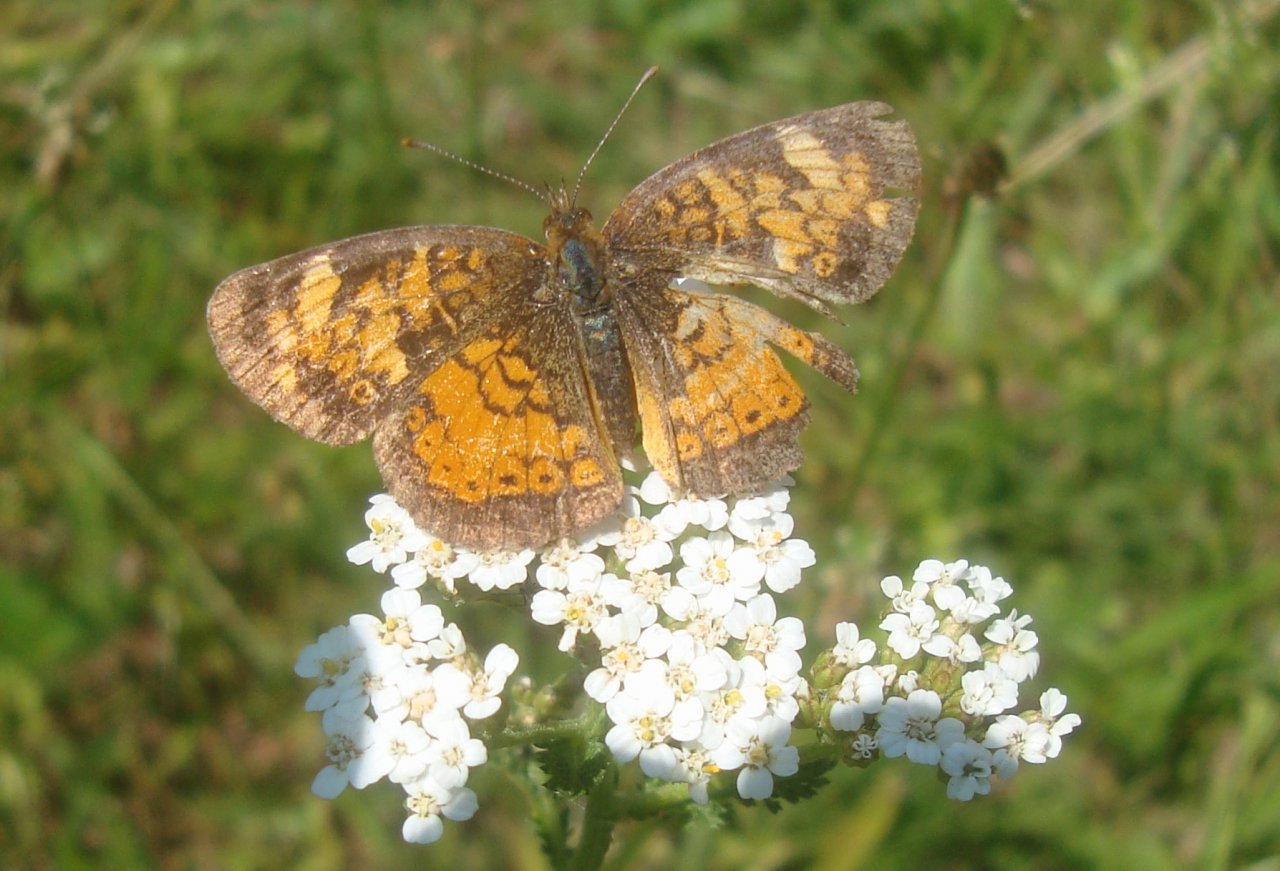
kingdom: Animalia
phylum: Arthropoda
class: Insecta
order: Lepidoptera
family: Nymphalidae
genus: Phyciodes
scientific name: Phyciodes tharos
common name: Northern Crescent
